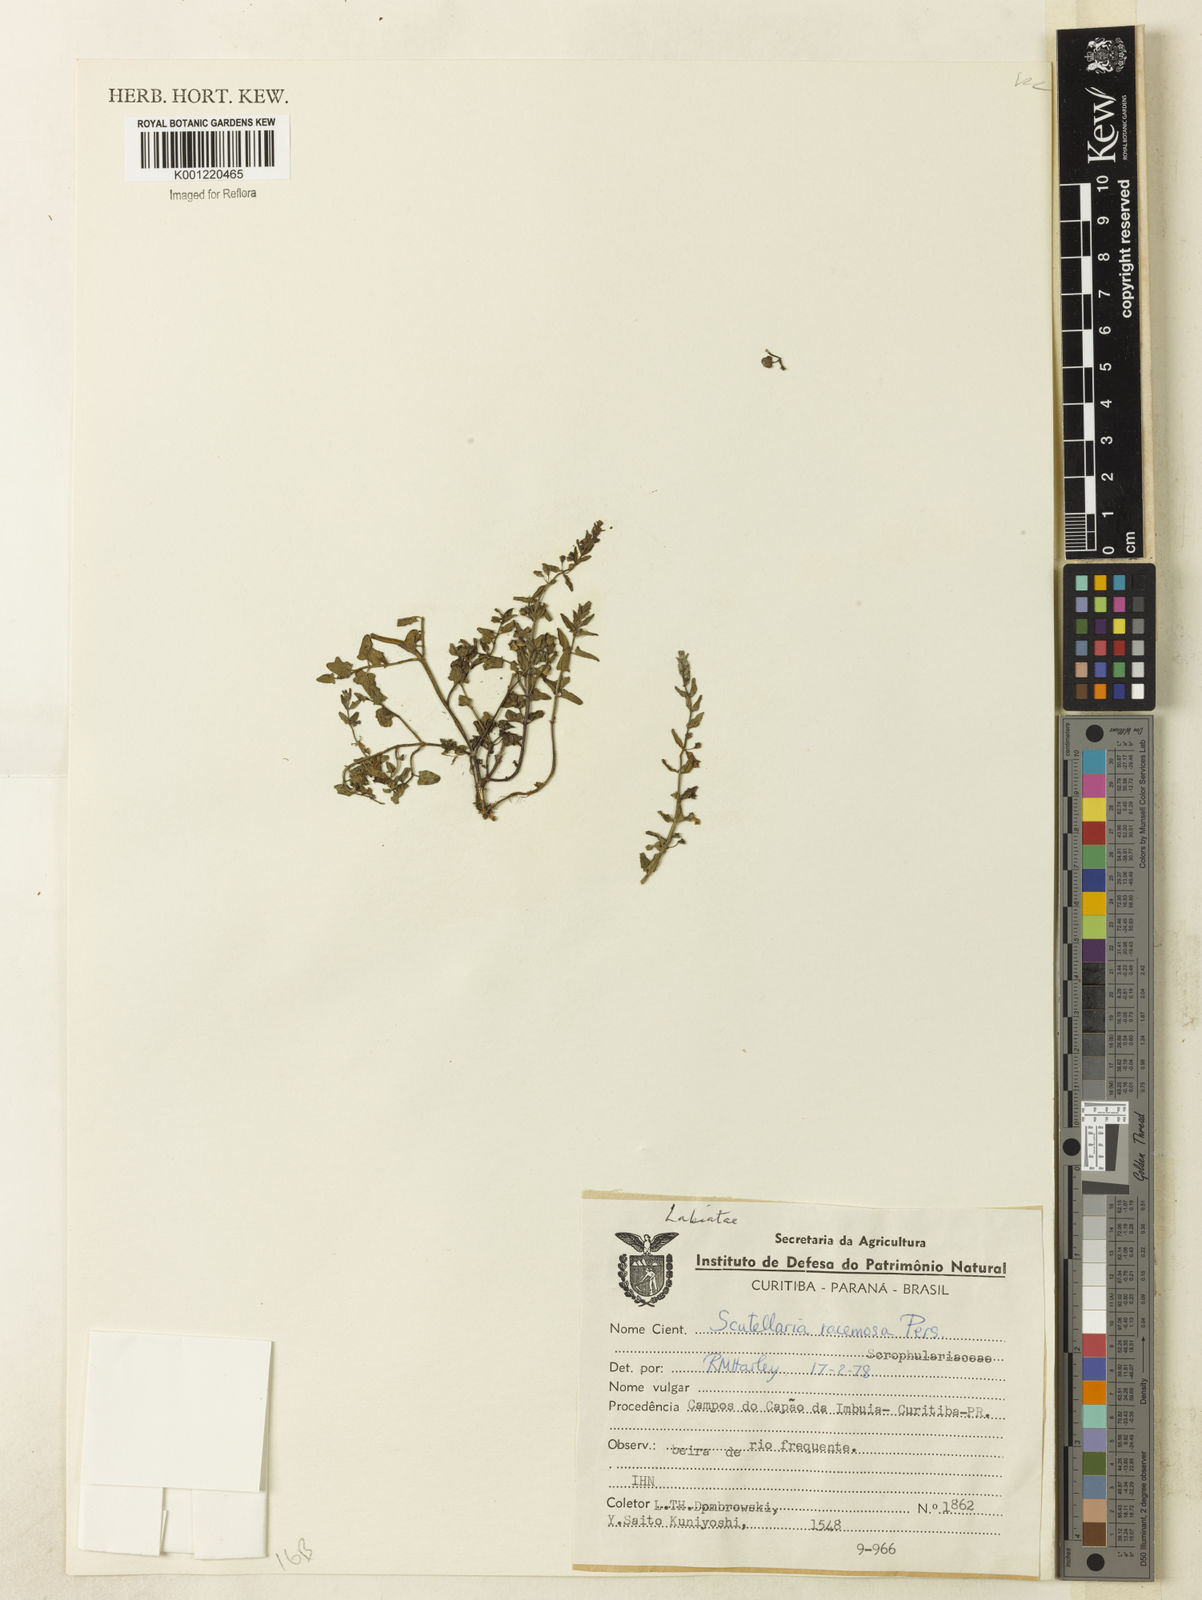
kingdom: Plantae
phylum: Tracheophyta
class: Magnoliopsida
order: Lamiales
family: Lamiaceae
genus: Scutellaria
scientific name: Scutellaria racemosa
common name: South american skullcap
